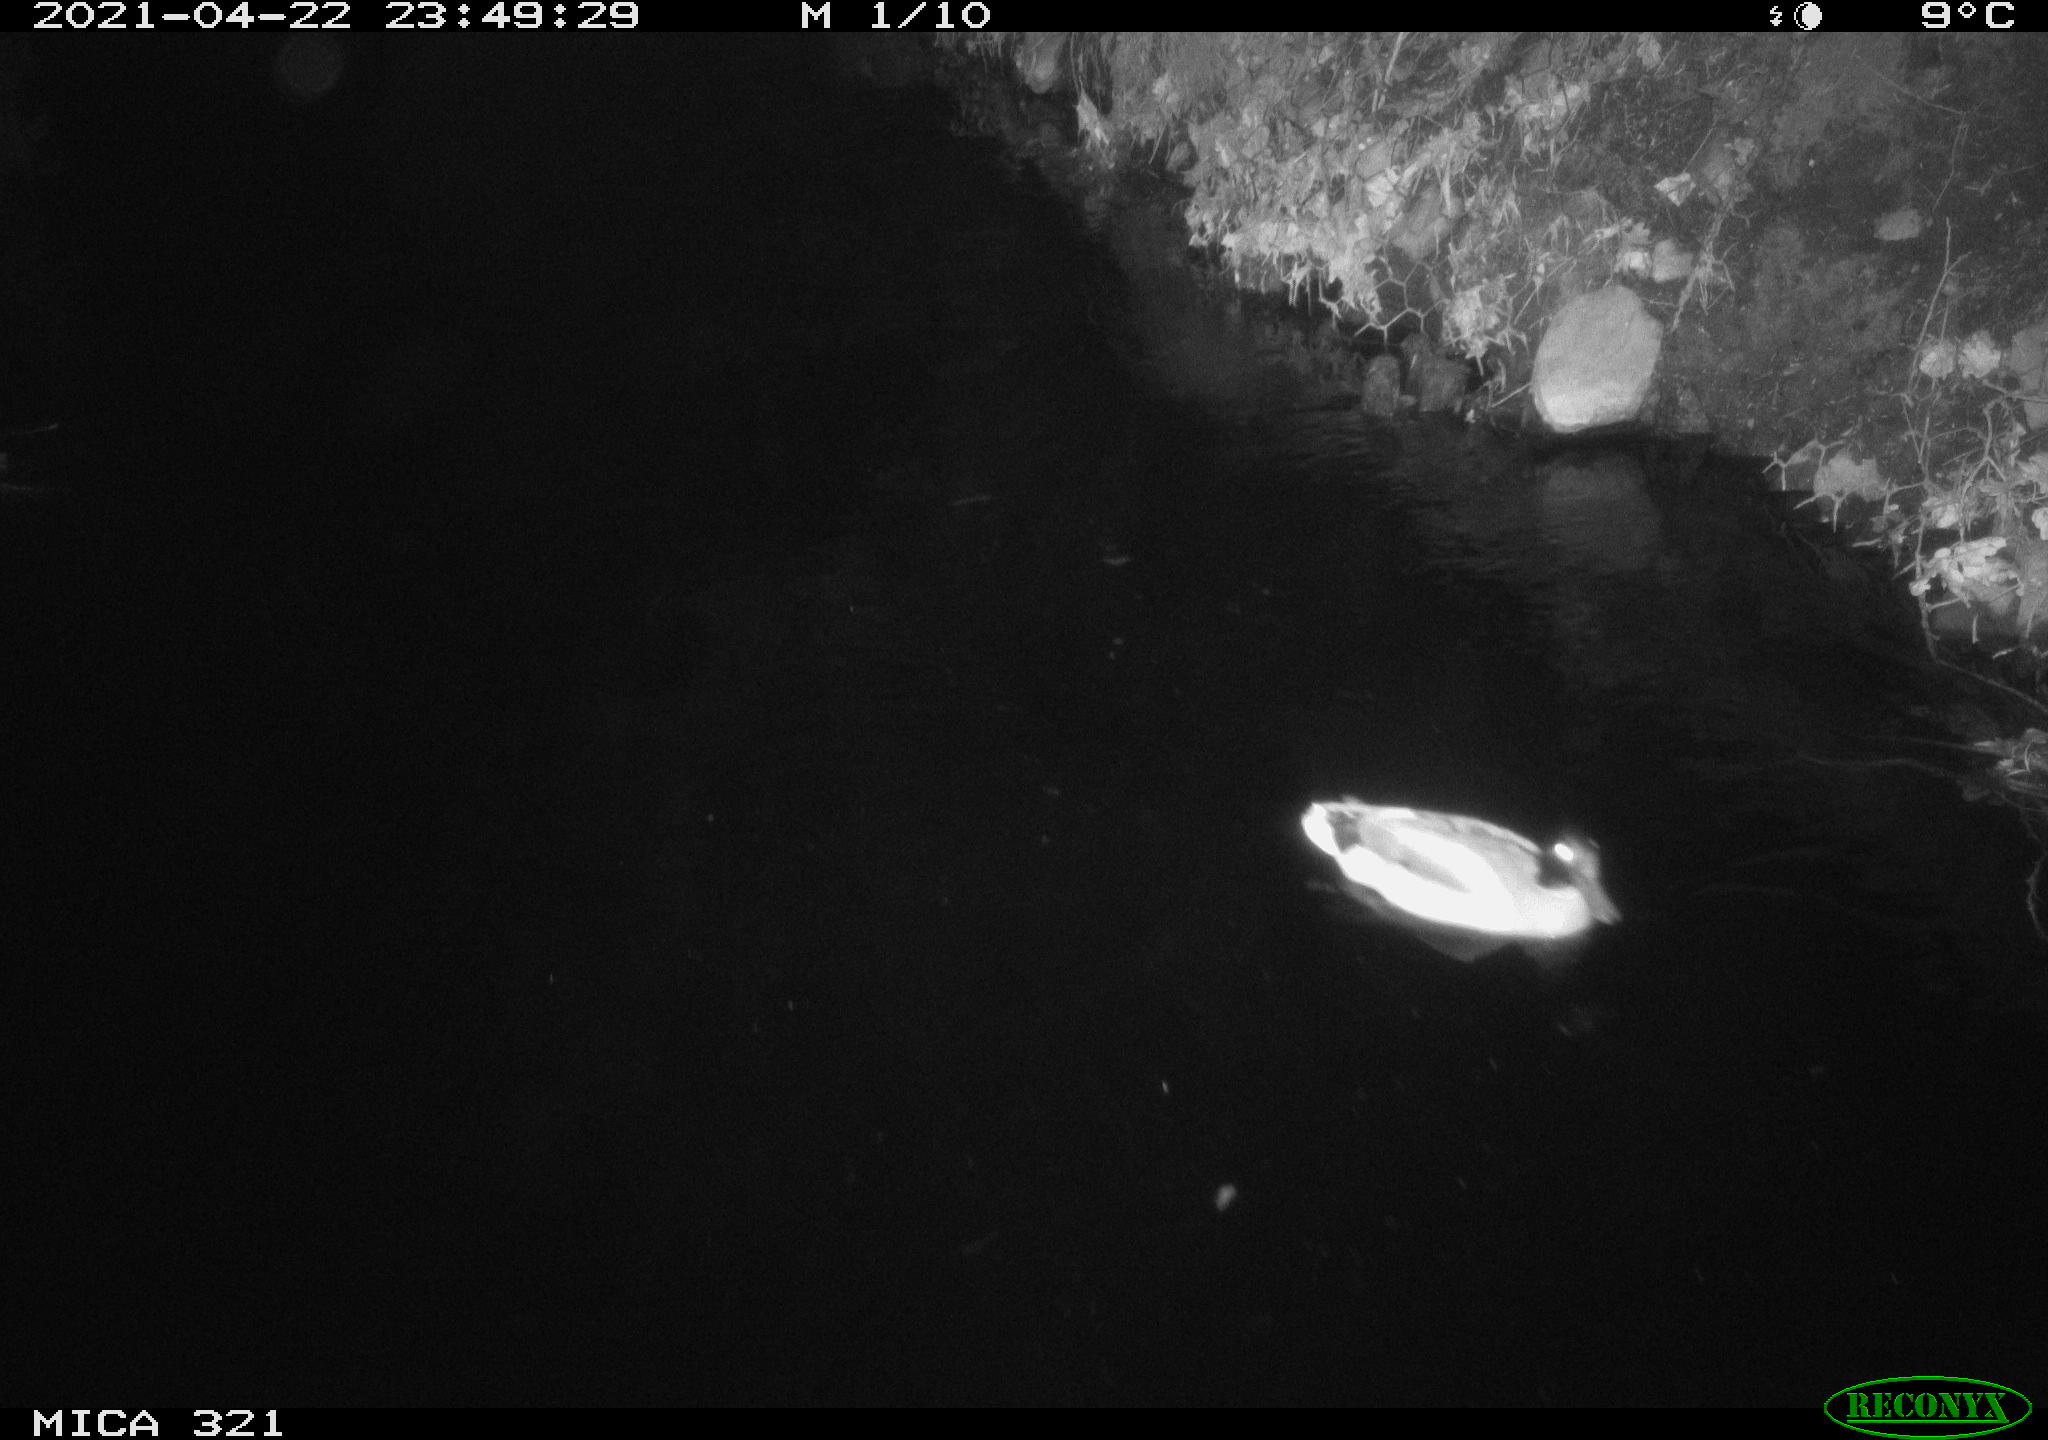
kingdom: Animalia
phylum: Chordata
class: Aves
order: Anseriformes
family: Anatidae
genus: Anas
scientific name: Anas
